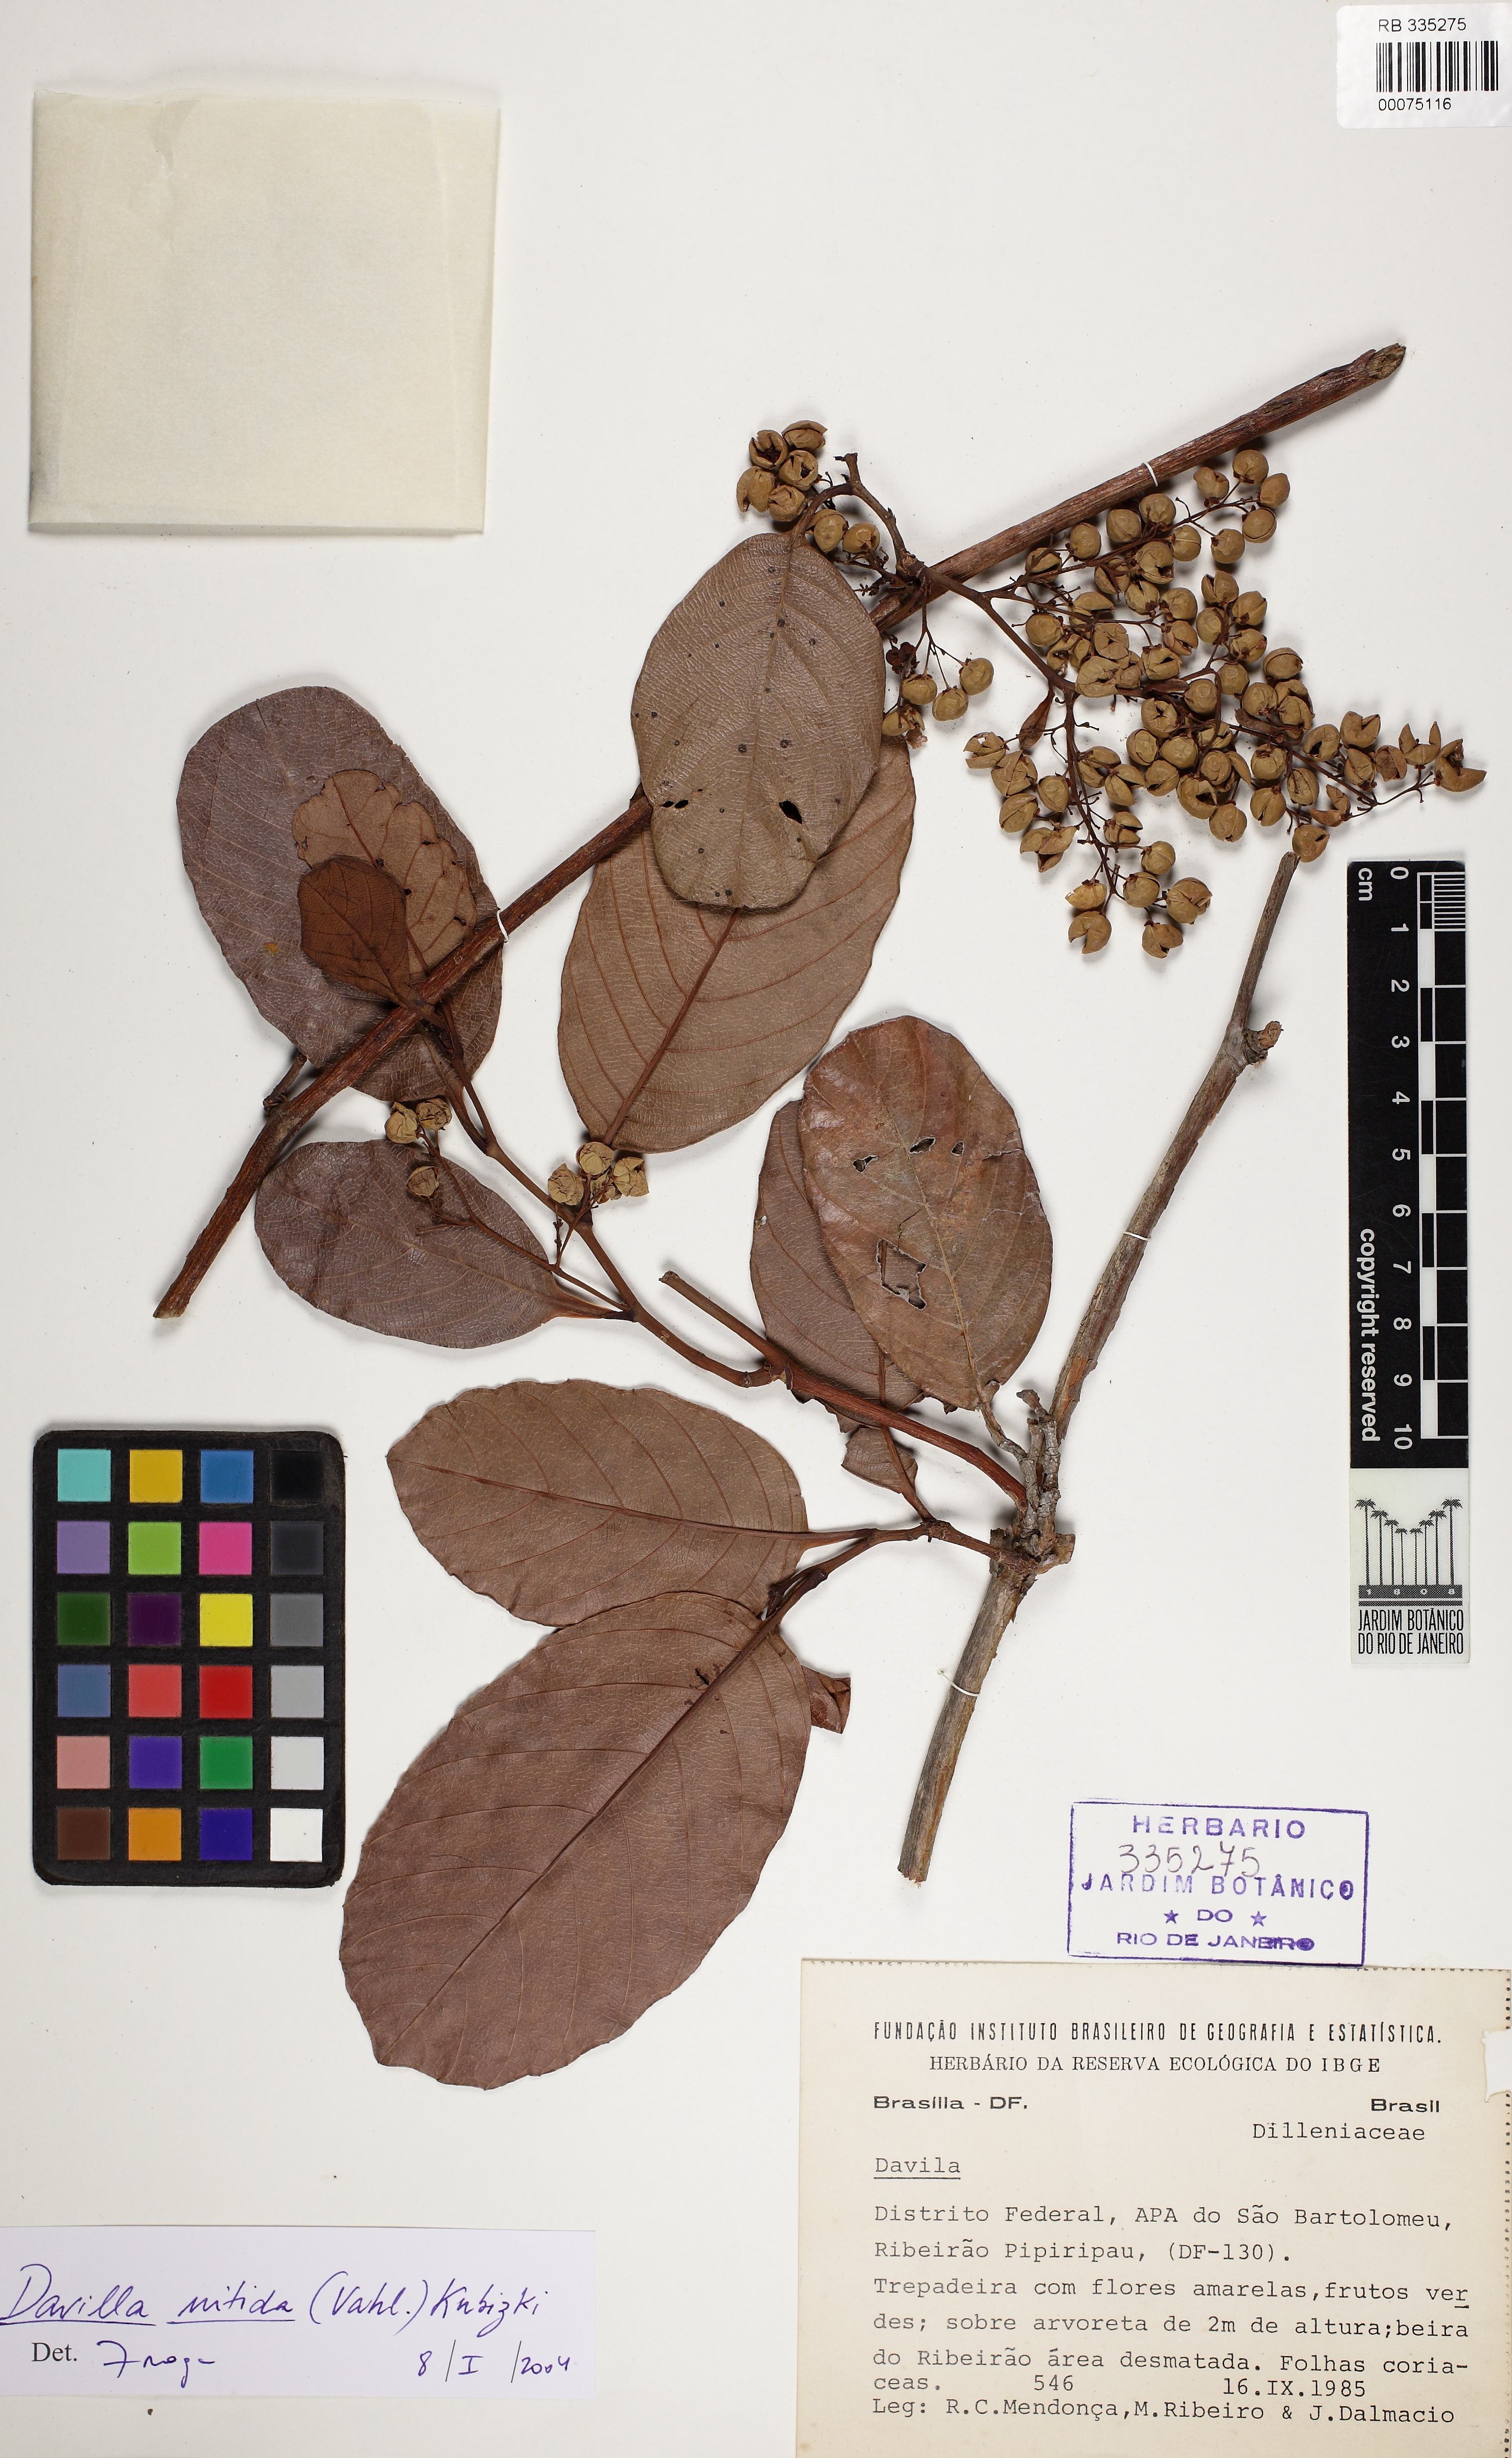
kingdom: Plantae
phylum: Tracheophyta
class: Magnoliopsida
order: Dilleniales
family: Dilleniaceae
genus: Davilla
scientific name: Davilla
